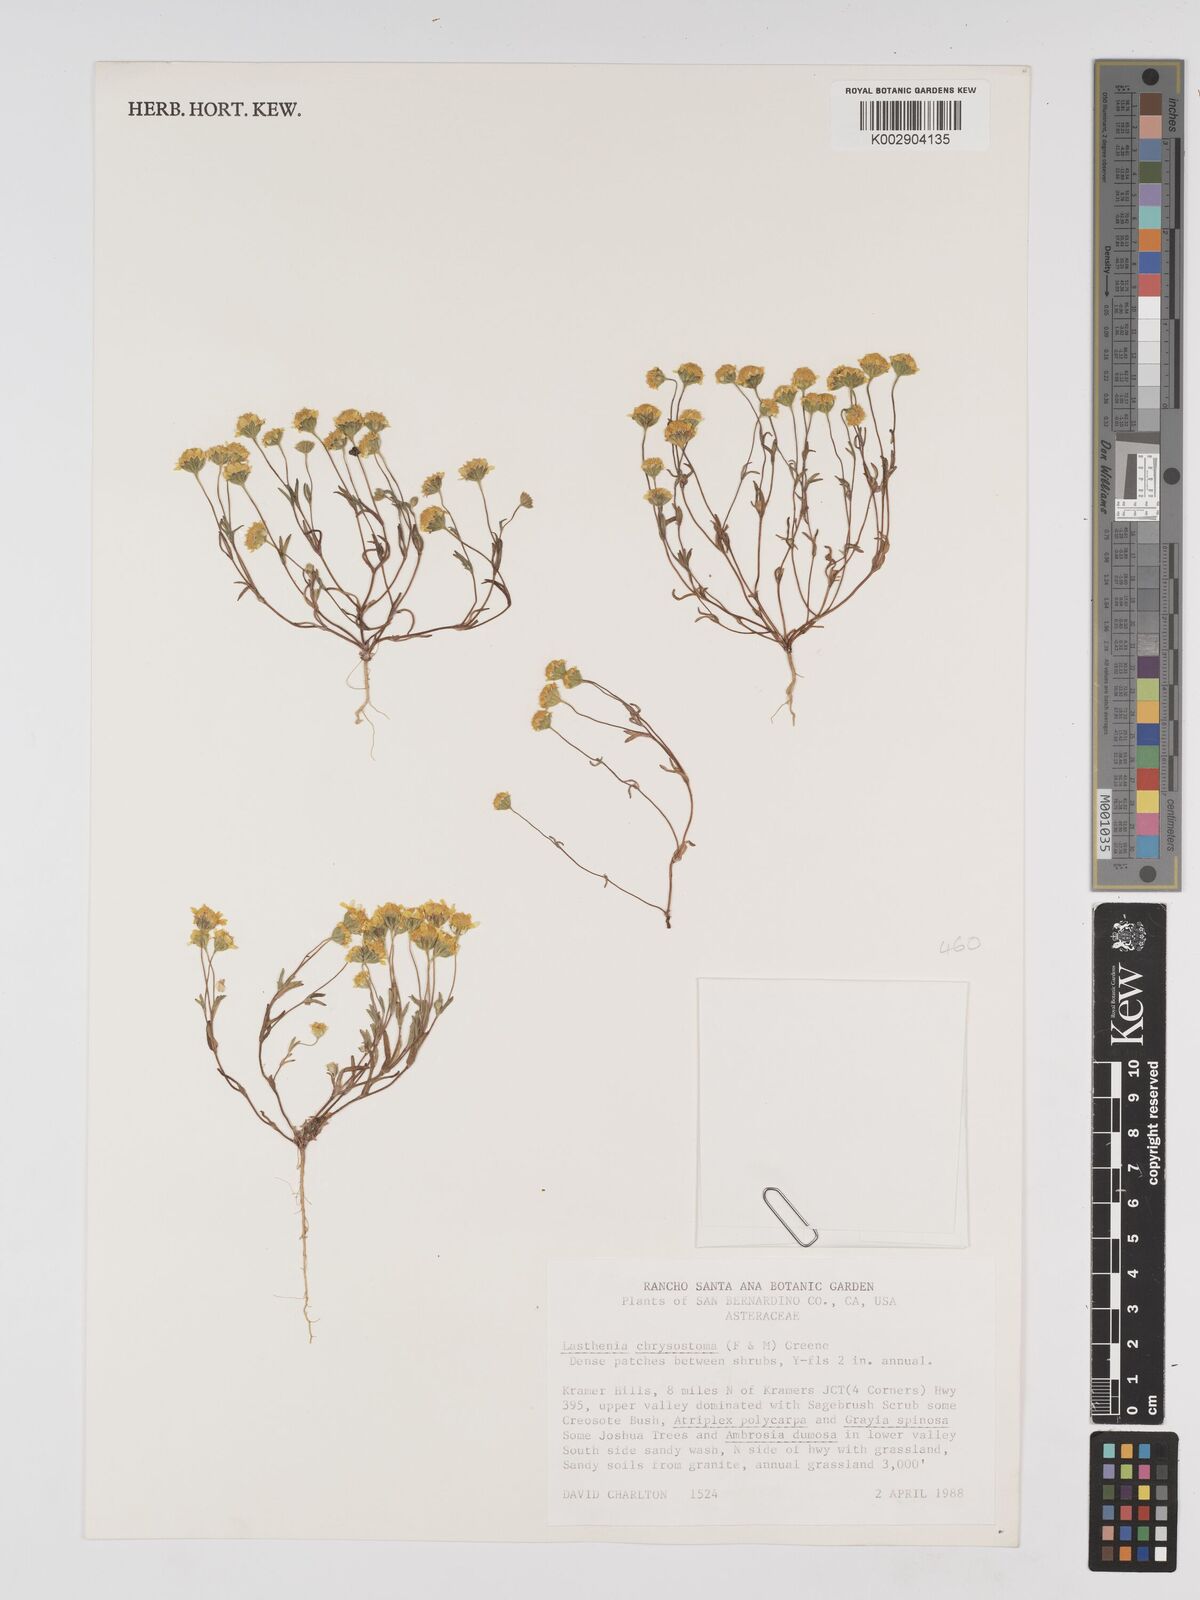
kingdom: Plantae
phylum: Tracheophyta
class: Magnoliopsida
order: Asterales
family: Asteraceae
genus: Lasthenia
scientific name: Lasthenia chrysantha
